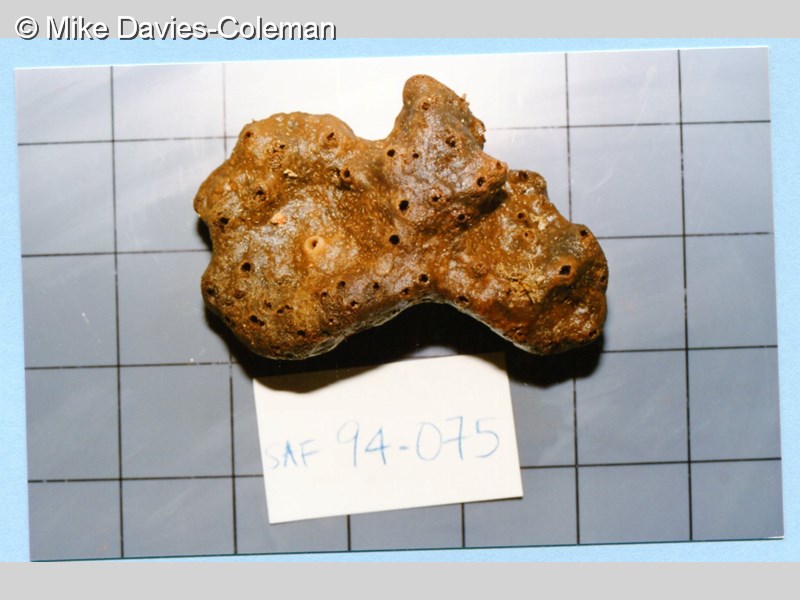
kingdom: Animalia
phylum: Porifera
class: Demospongiae
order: Haplosclerida
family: Niphatidae
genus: Amphimedon
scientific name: Amphimedon
